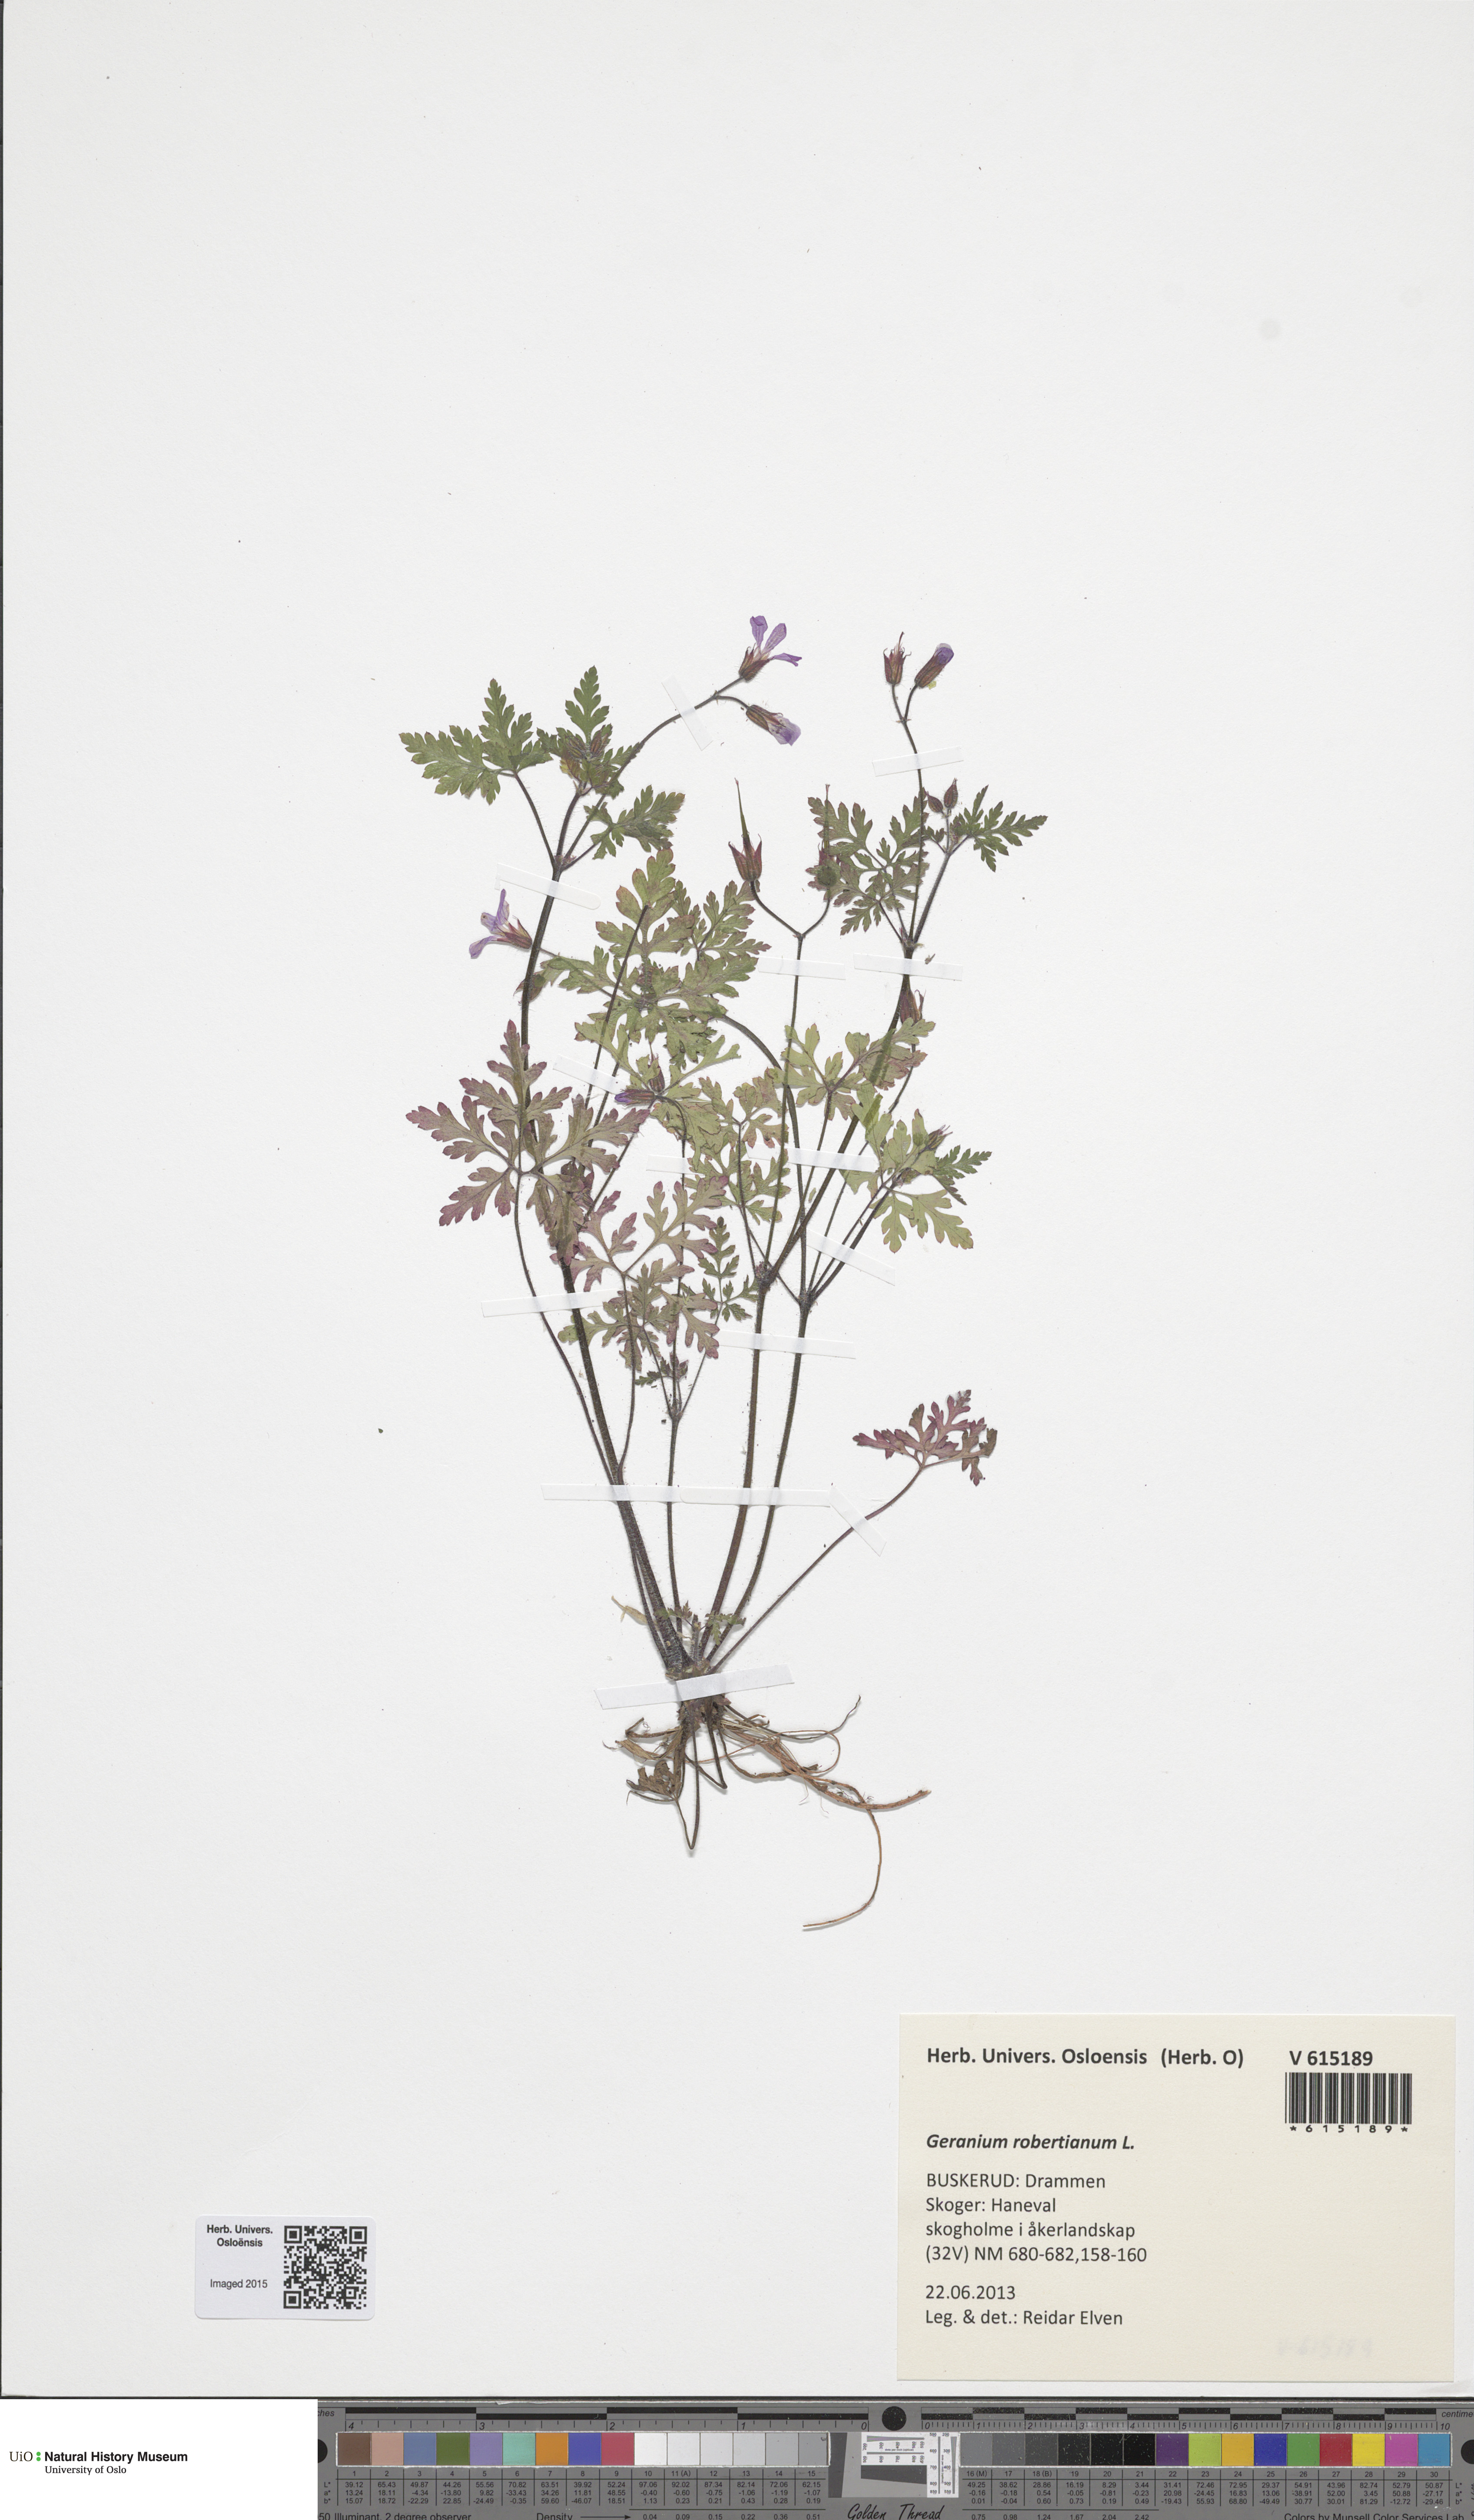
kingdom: Plantae
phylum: Tracheophyta
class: Magnoliopsida
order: Geraniales
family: Geraniaceae
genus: Geranium
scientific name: Geranium robertianum
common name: Herb-robert
